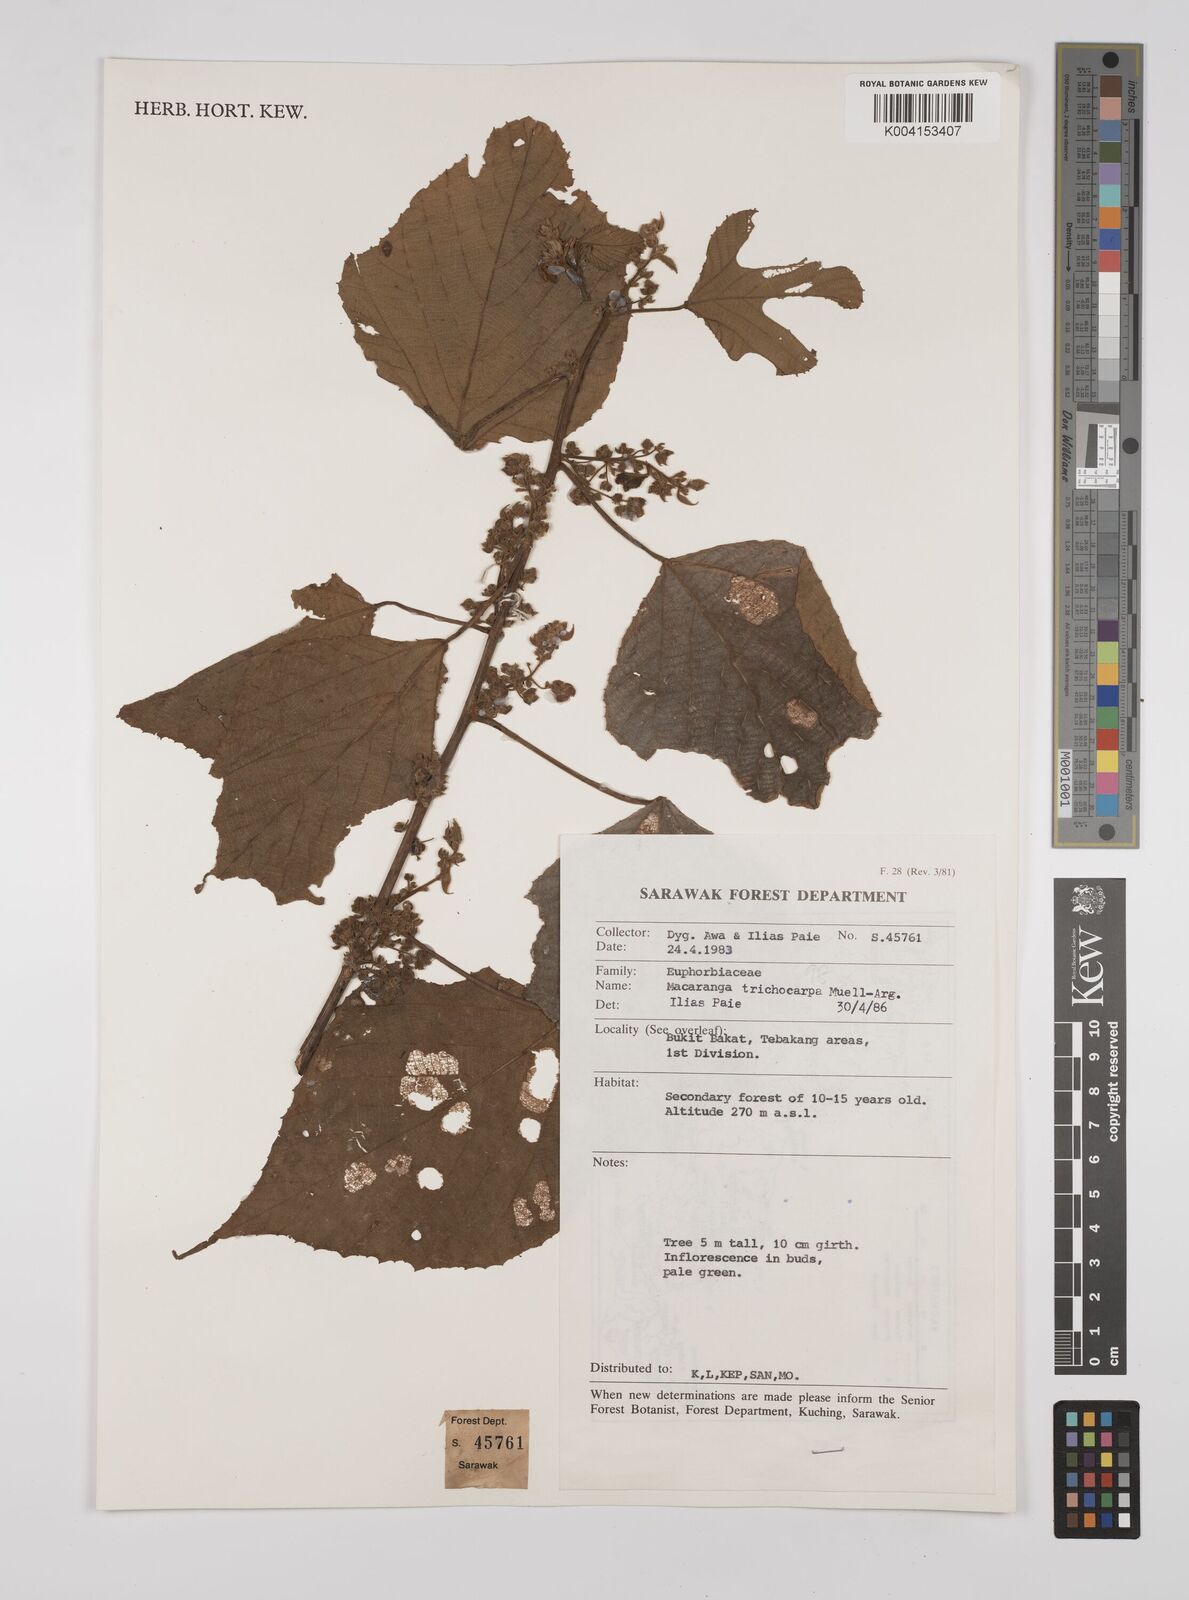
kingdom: Plantae
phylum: Tracheophyta
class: Magnoliopsida
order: Malpighiales
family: Euphorbiaceae
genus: Macaranga
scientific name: Macaranga trichocarpa
